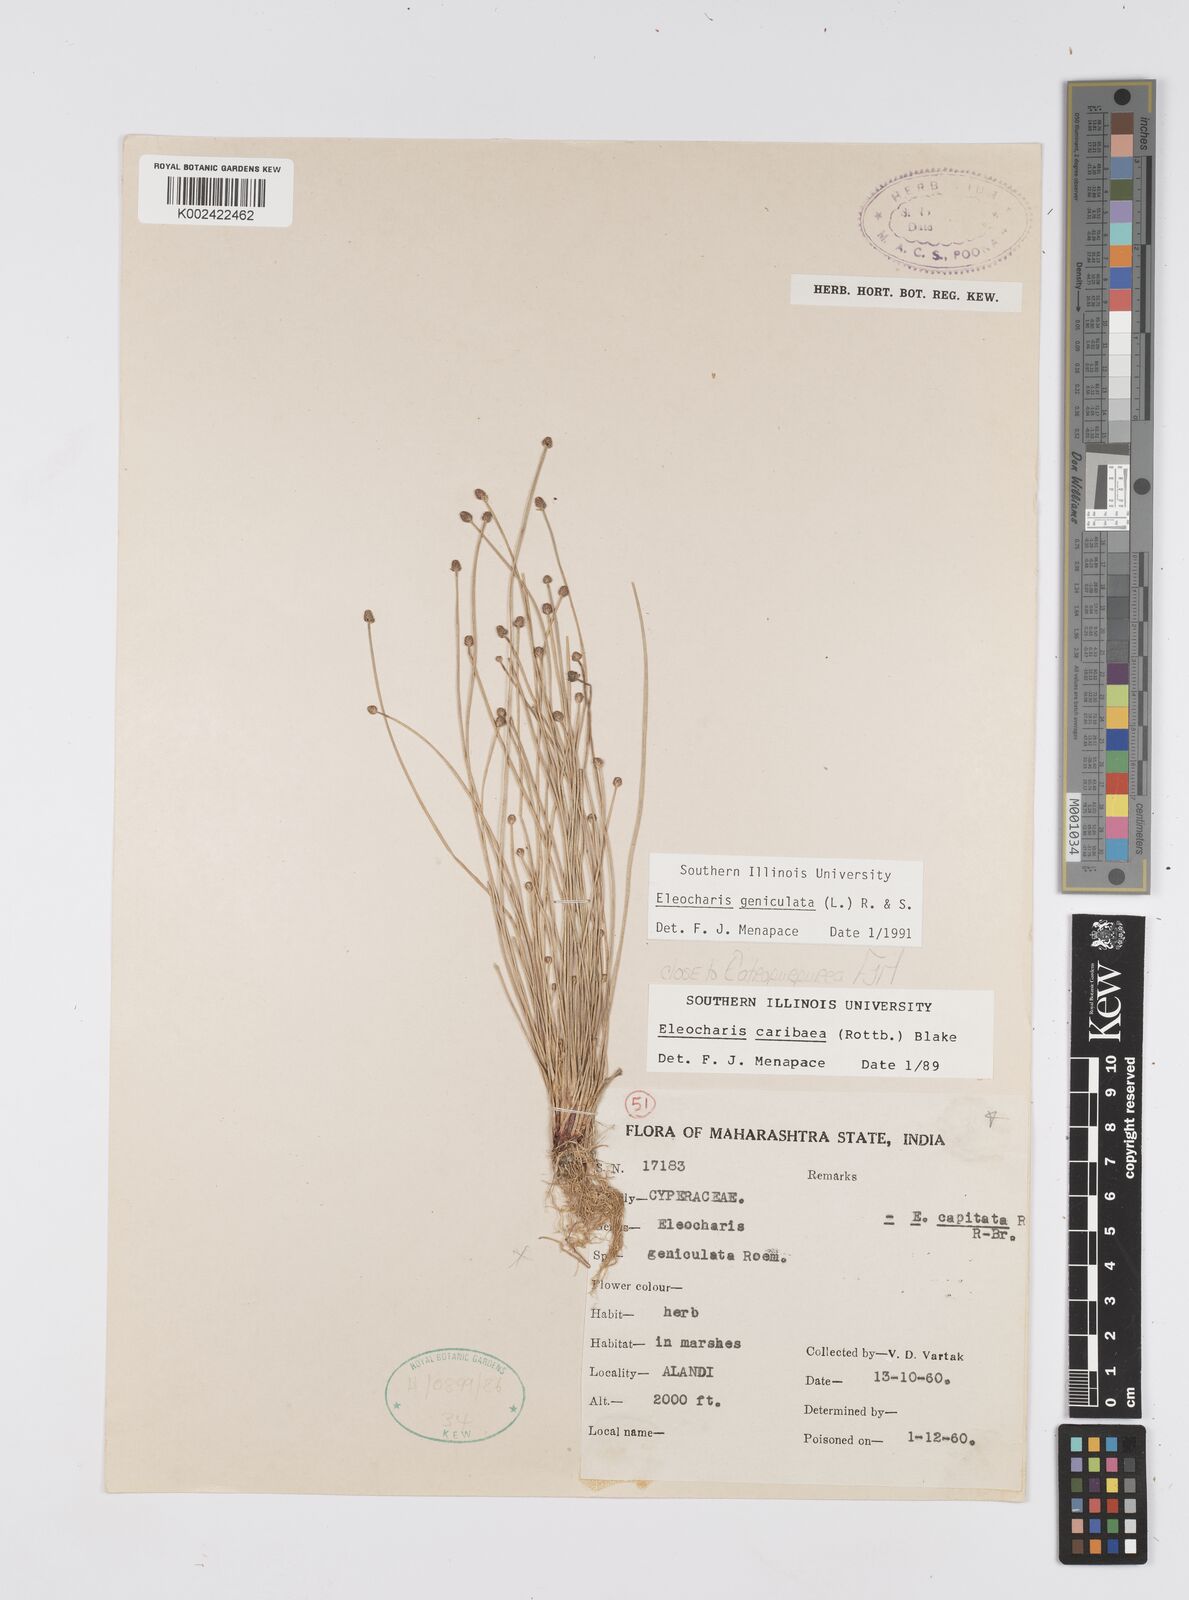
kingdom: Plantae
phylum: Tracheophyta
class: Liliopsida
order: Poales
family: Cyperaceae
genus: Eleocharis
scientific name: Eleocharis geniculata
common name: Canada spikesedge
